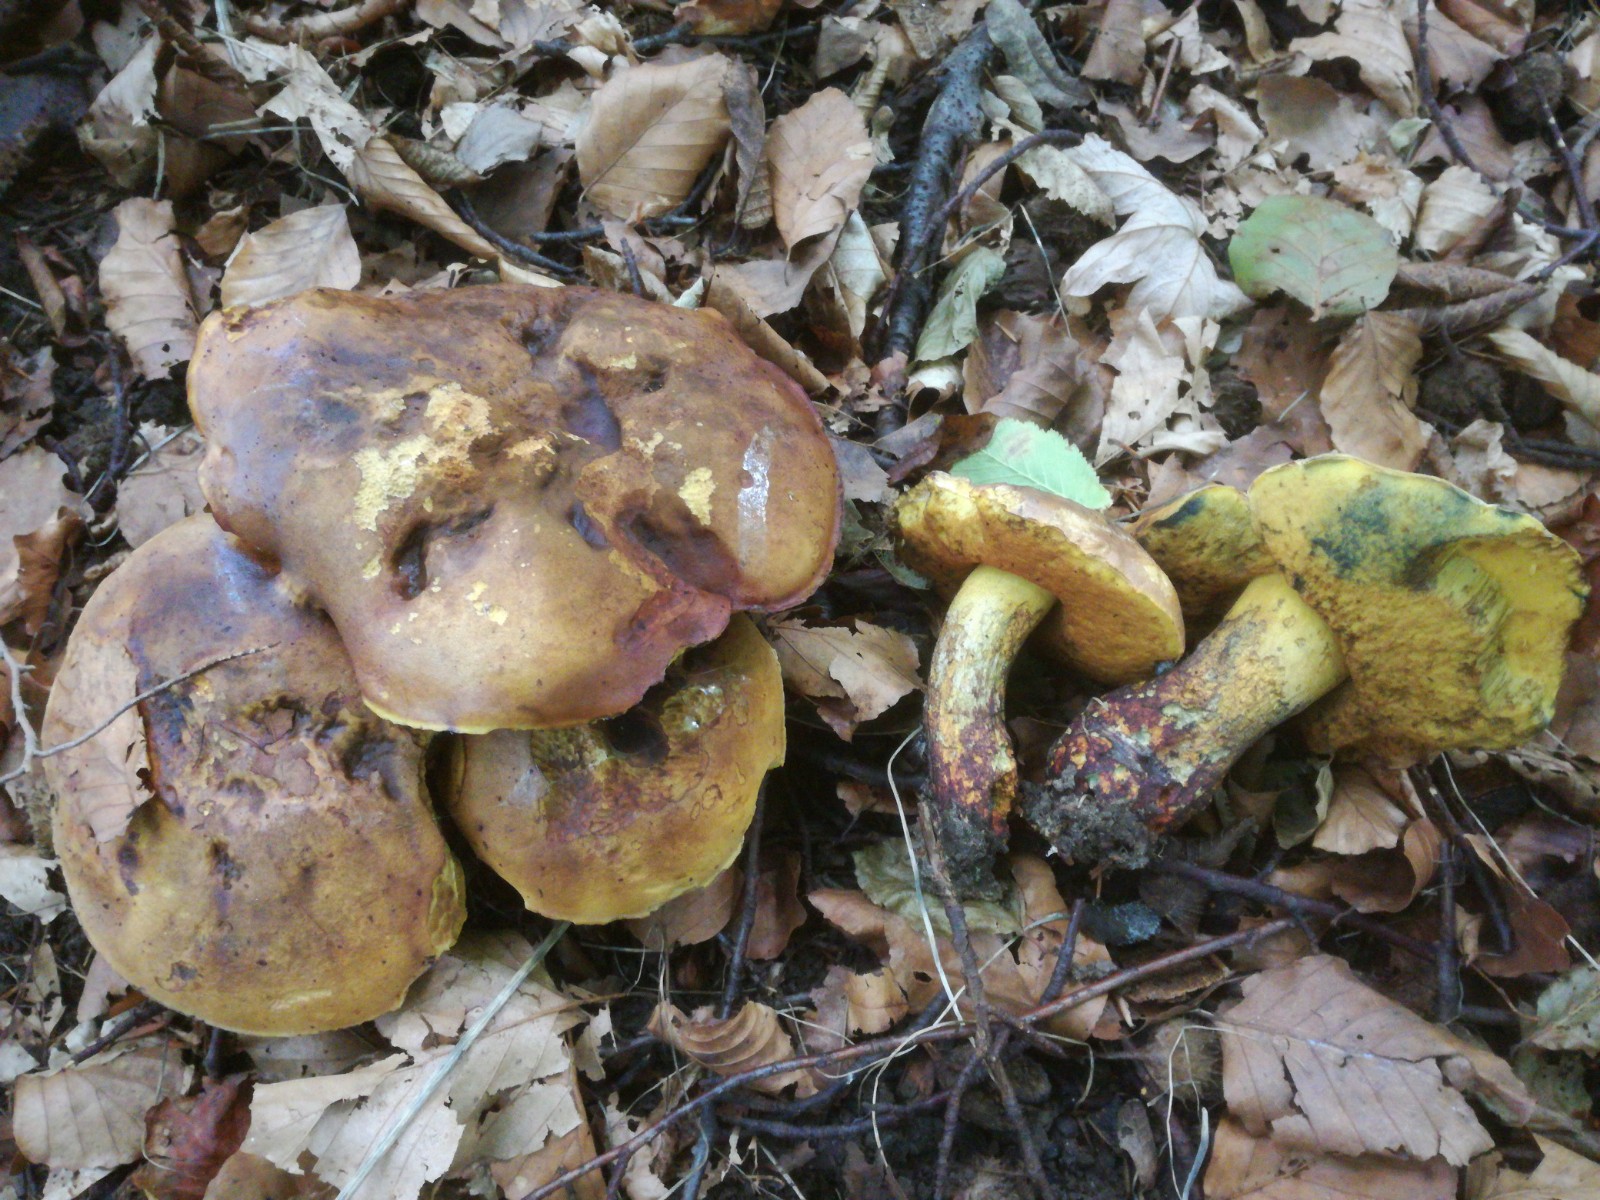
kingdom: Fungi
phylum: Basidiomycota
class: Agaricomycetes
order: Boletales
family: Boletaceae
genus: Neoboletus
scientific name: Neoboletus xanthopus
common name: finprikket indigorørhat
